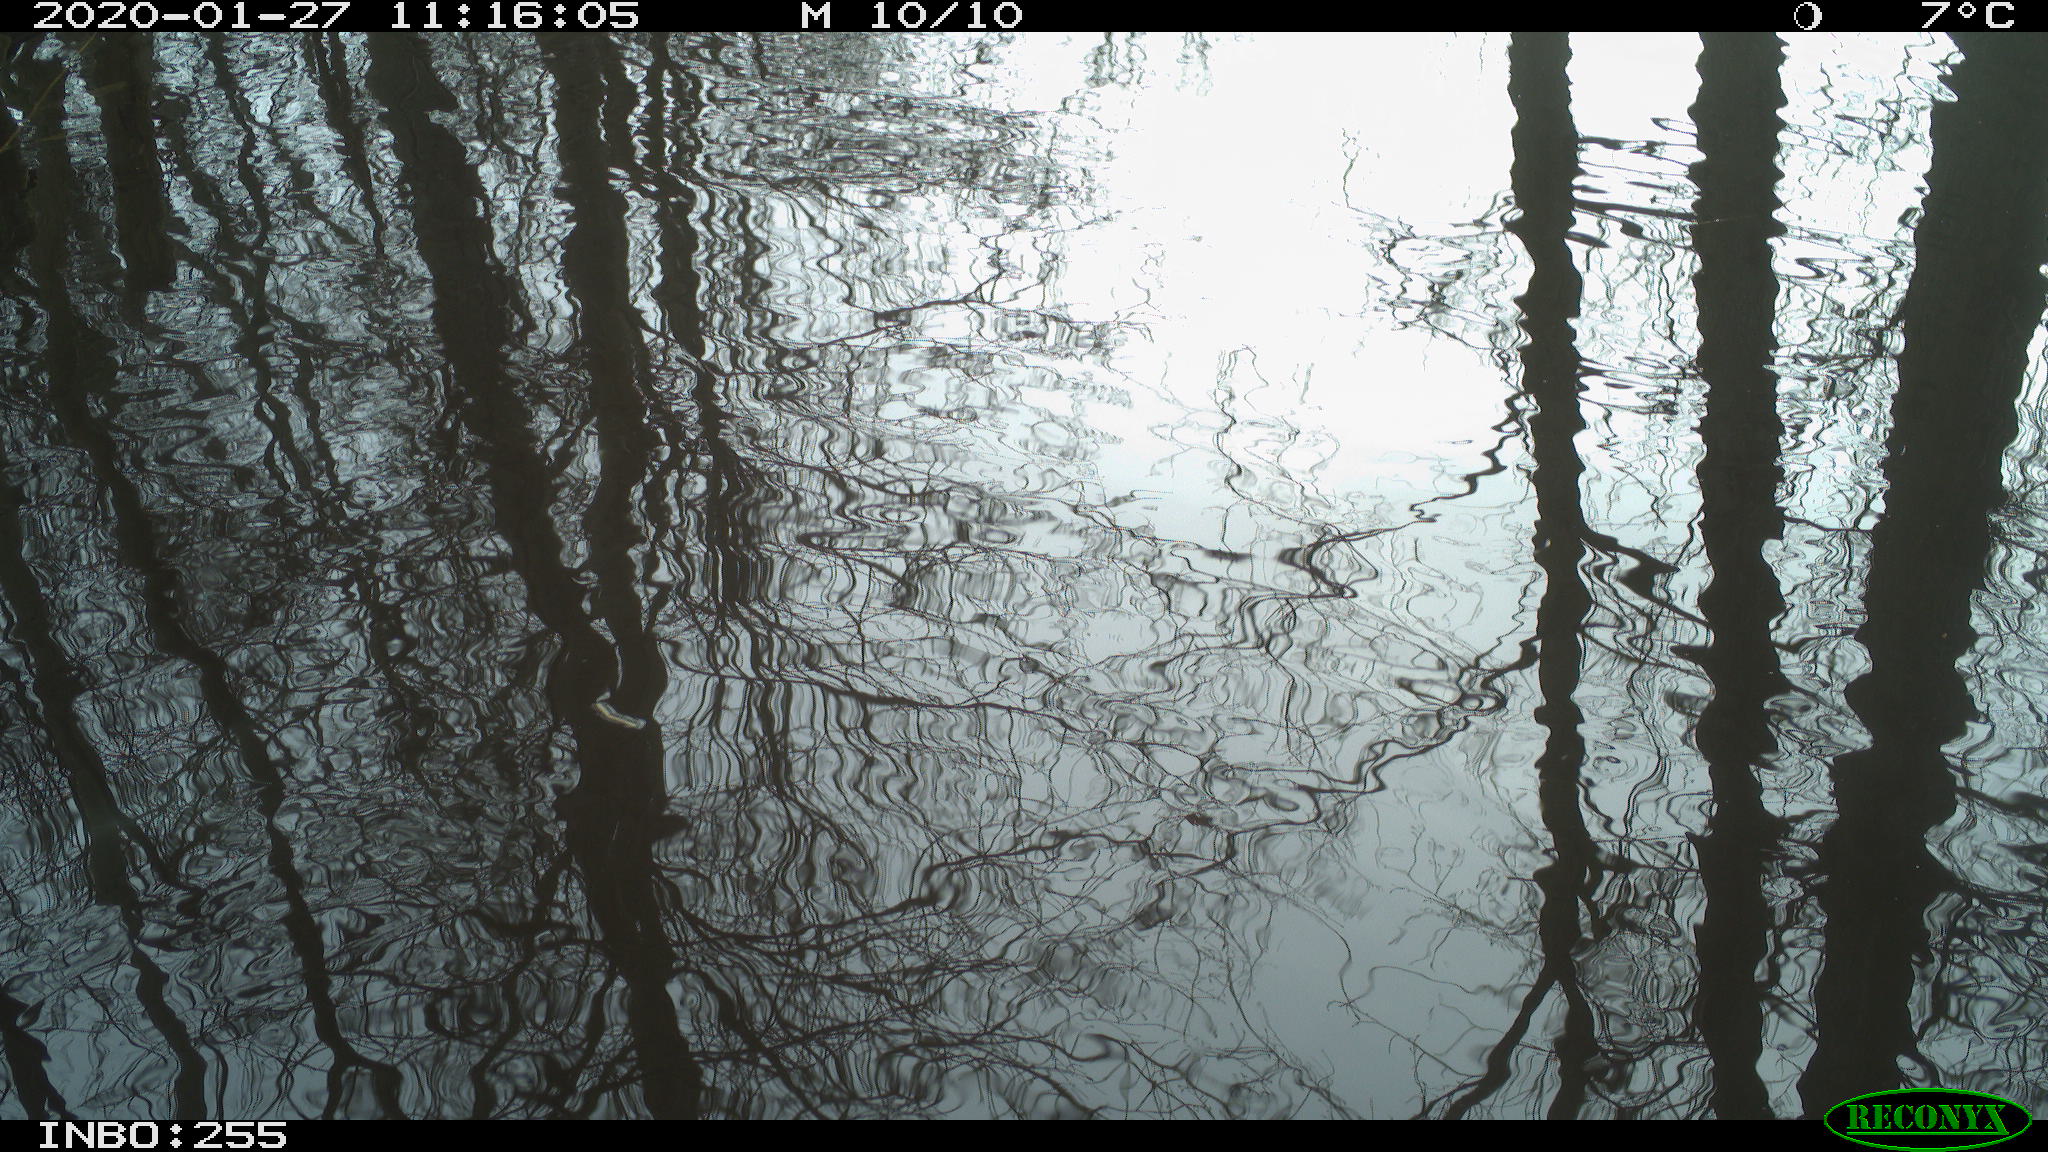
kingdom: Animalia
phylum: Chordata
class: Aves
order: Gruiformes
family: Rallidae
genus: Gallinula
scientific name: Gallinula chloropus
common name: Common moorhen
